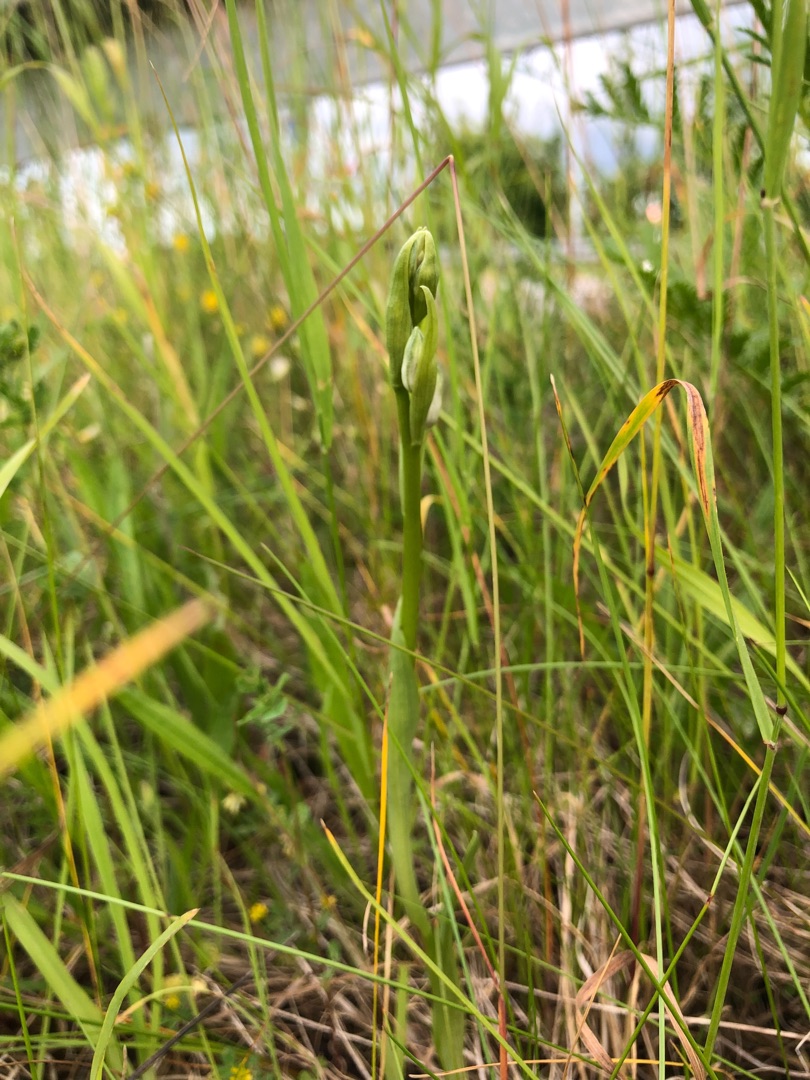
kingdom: Plantae
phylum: Tracheophyta
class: Liliopsida
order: Asparagales
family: Orchidaceae
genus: Ophrys
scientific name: Ophrys apifera
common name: Biblomst
